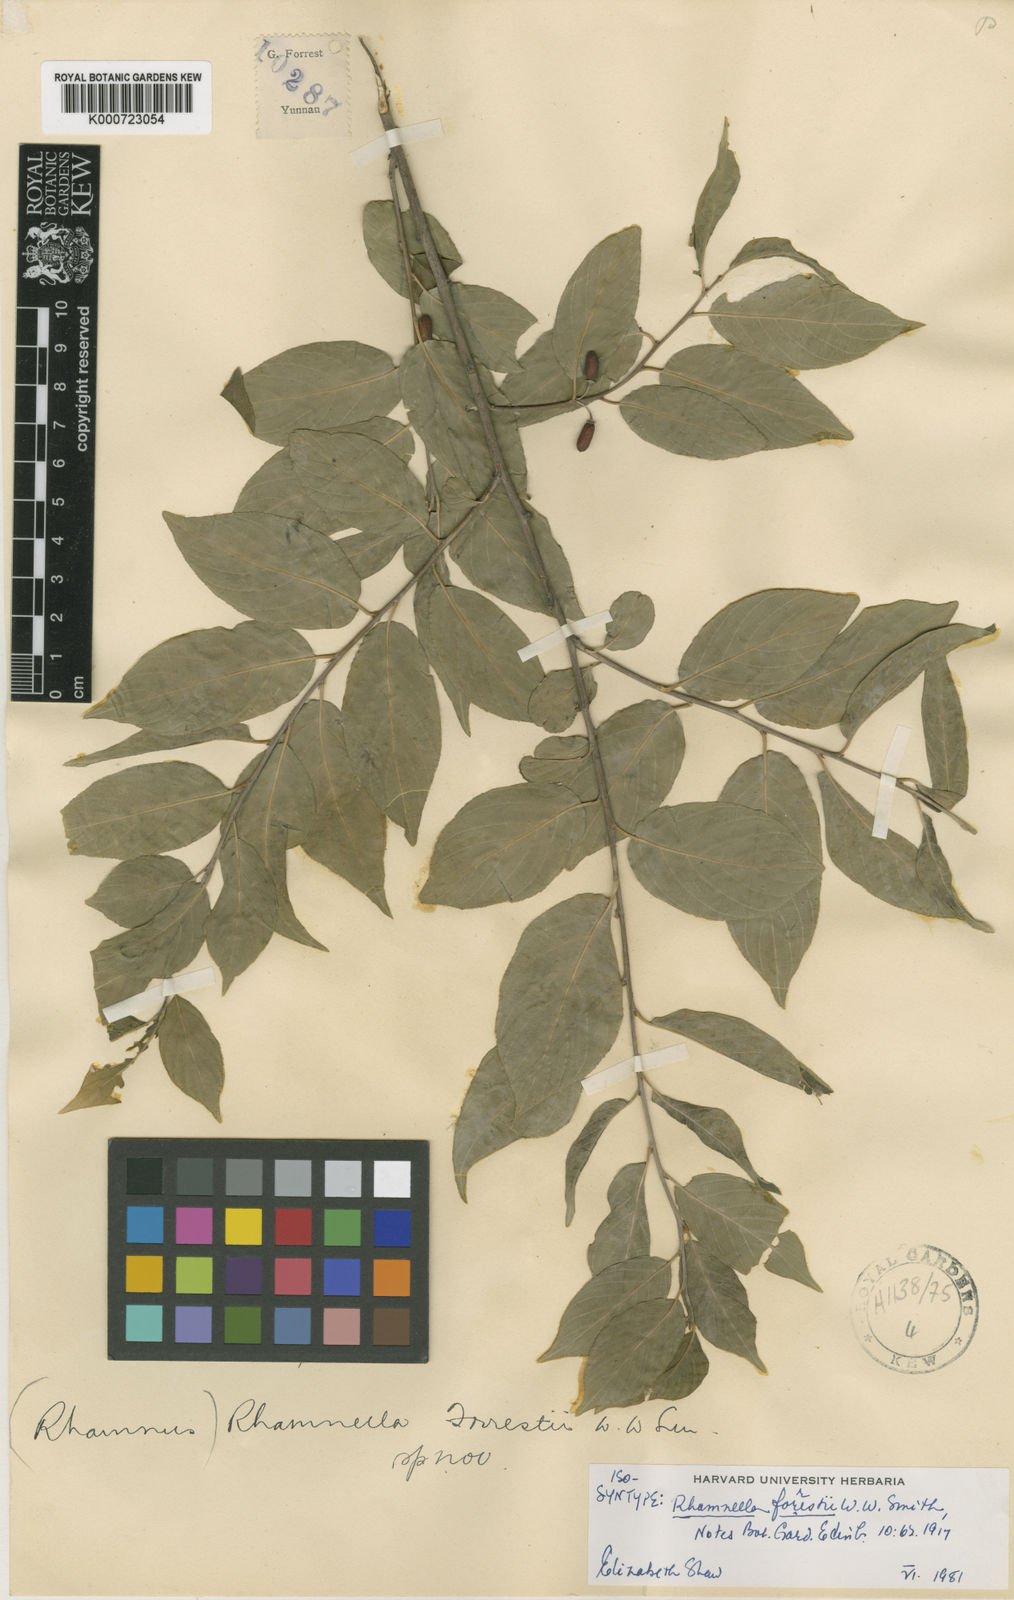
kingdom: Plantae
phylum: Tracheophyta
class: Magnoliopsida
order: Rosales
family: Rhamnaceae
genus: Rhamnella
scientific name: Rhamnella forrestii
